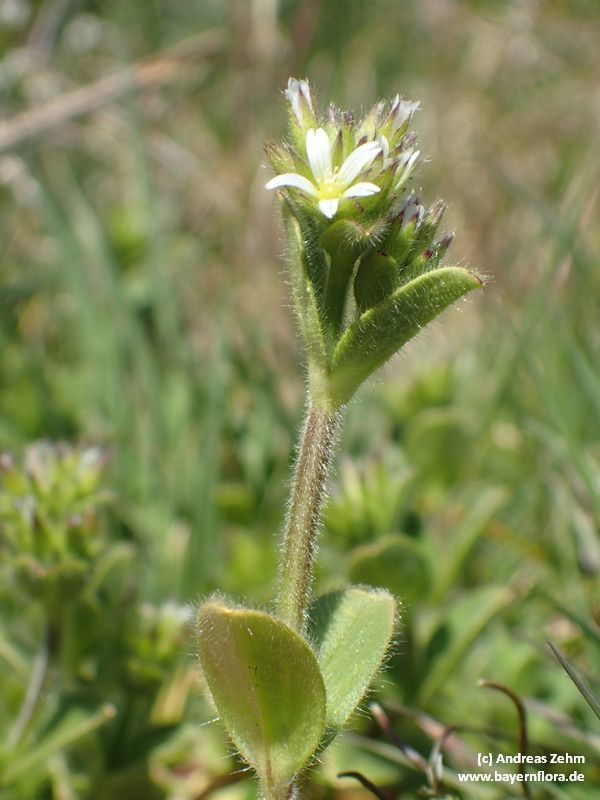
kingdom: Plantae
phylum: Tracheophyta
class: Magnoliopsida
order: Caryophyllales
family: Caryophyllaceae
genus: Cerastium
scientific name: Cerastium glomeratum
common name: Sticky chickweed
